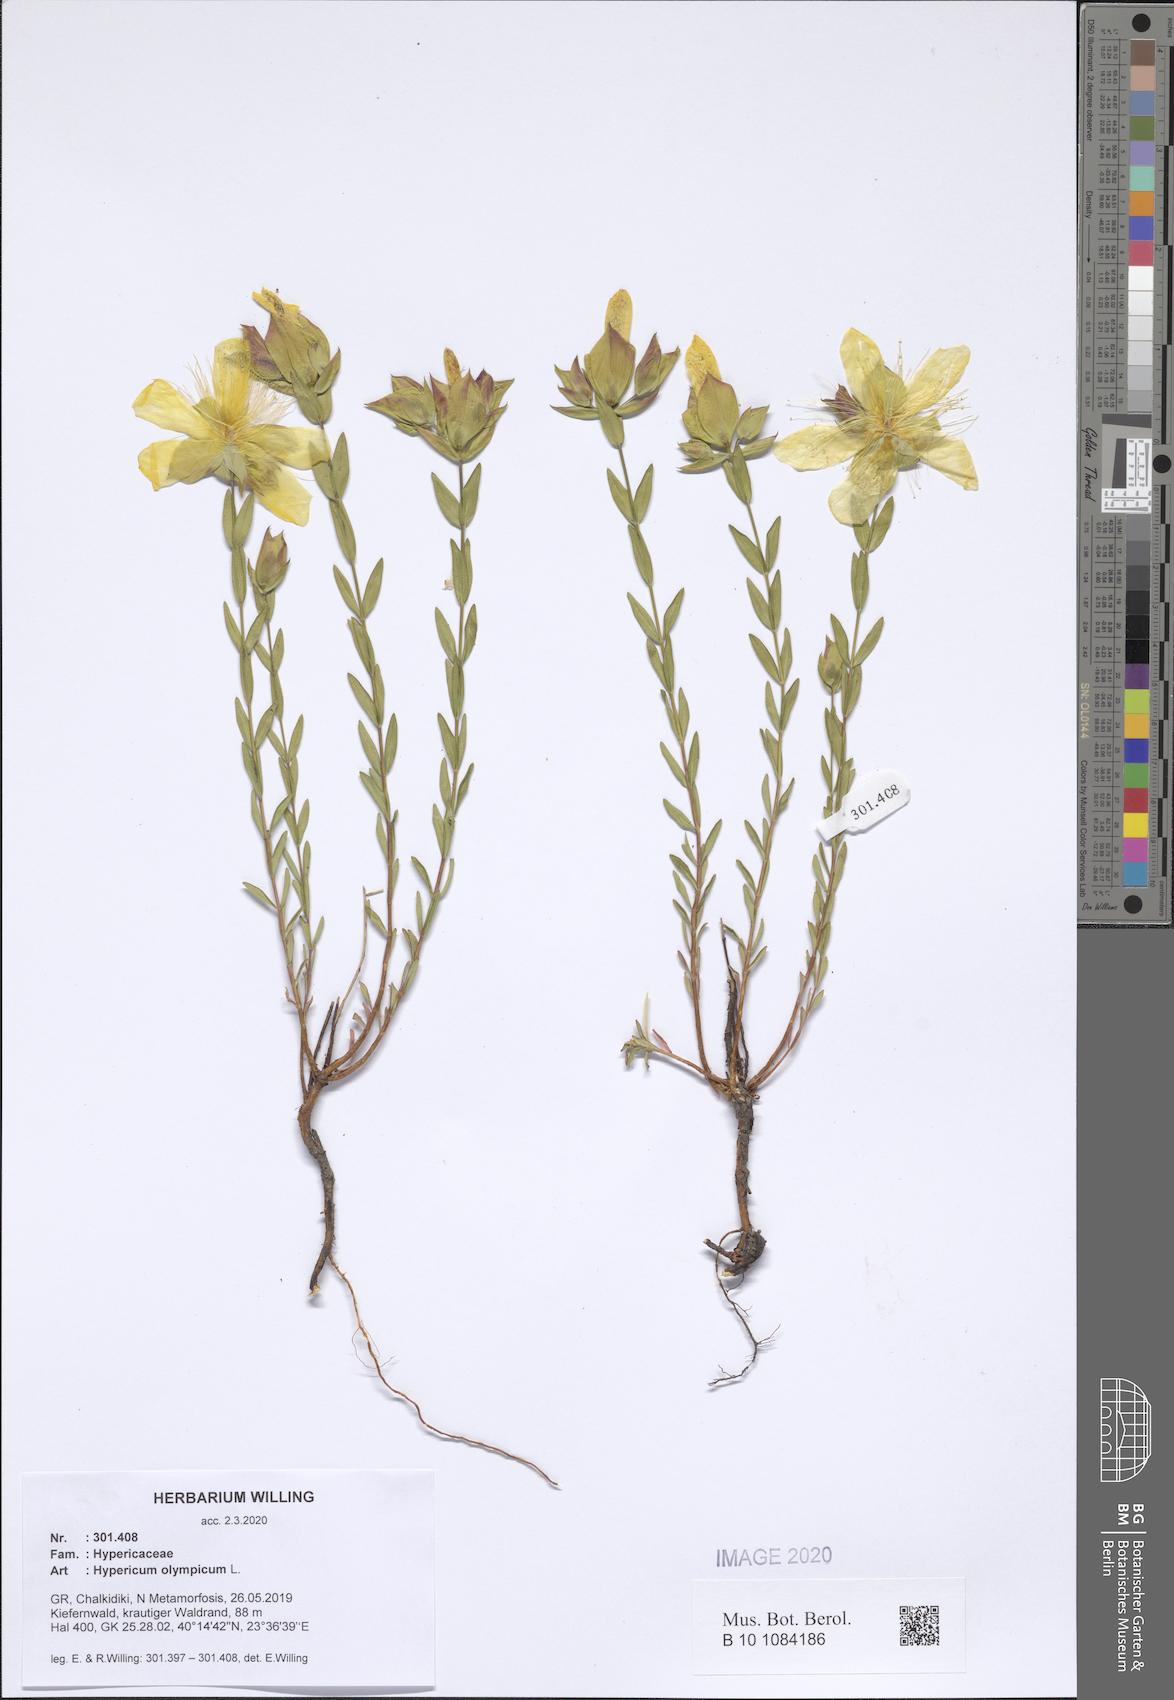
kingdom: Plantae
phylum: Tracheophyta
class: Magnoliopsida
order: Malpighiales
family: Hypericaceae
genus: Hypericum
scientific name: Hypericum olympicum
